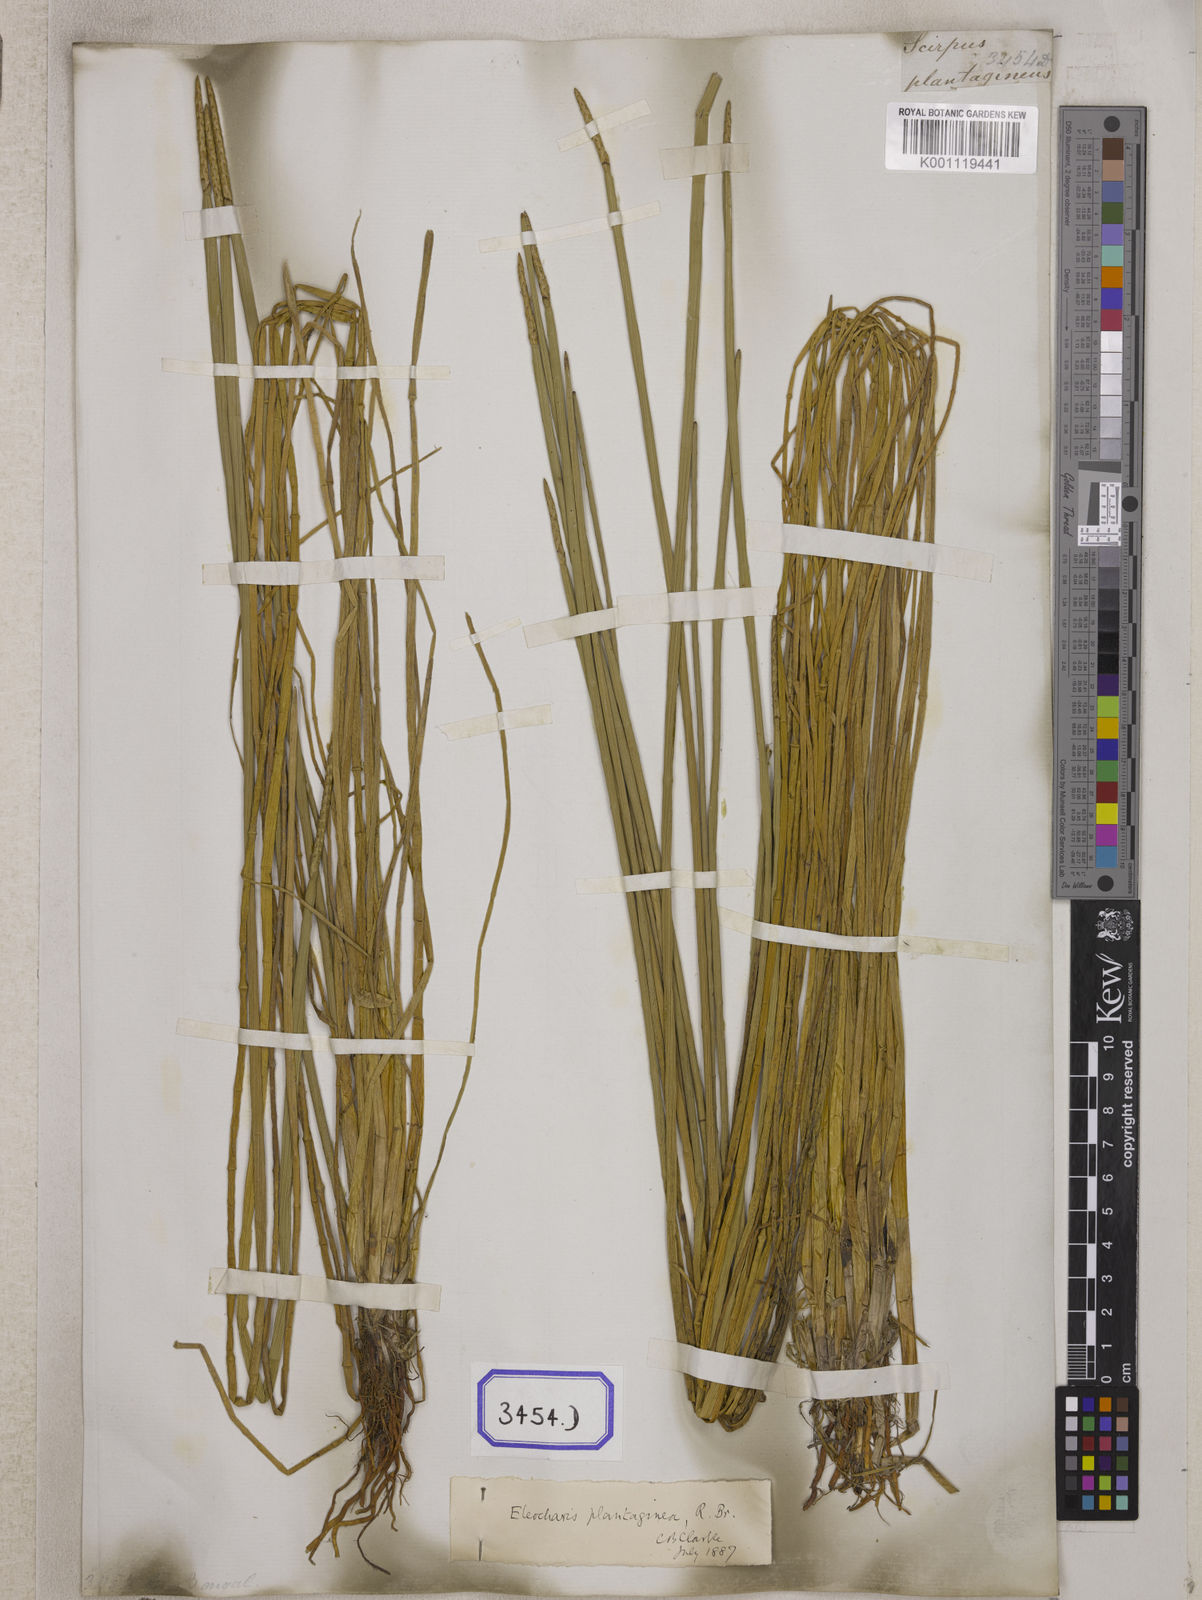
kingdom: Plantae
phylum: Tracheophyta
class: Liliopsida
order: Poales
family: Cyperaceae
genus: Eleocharis
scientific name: Eleocharis
